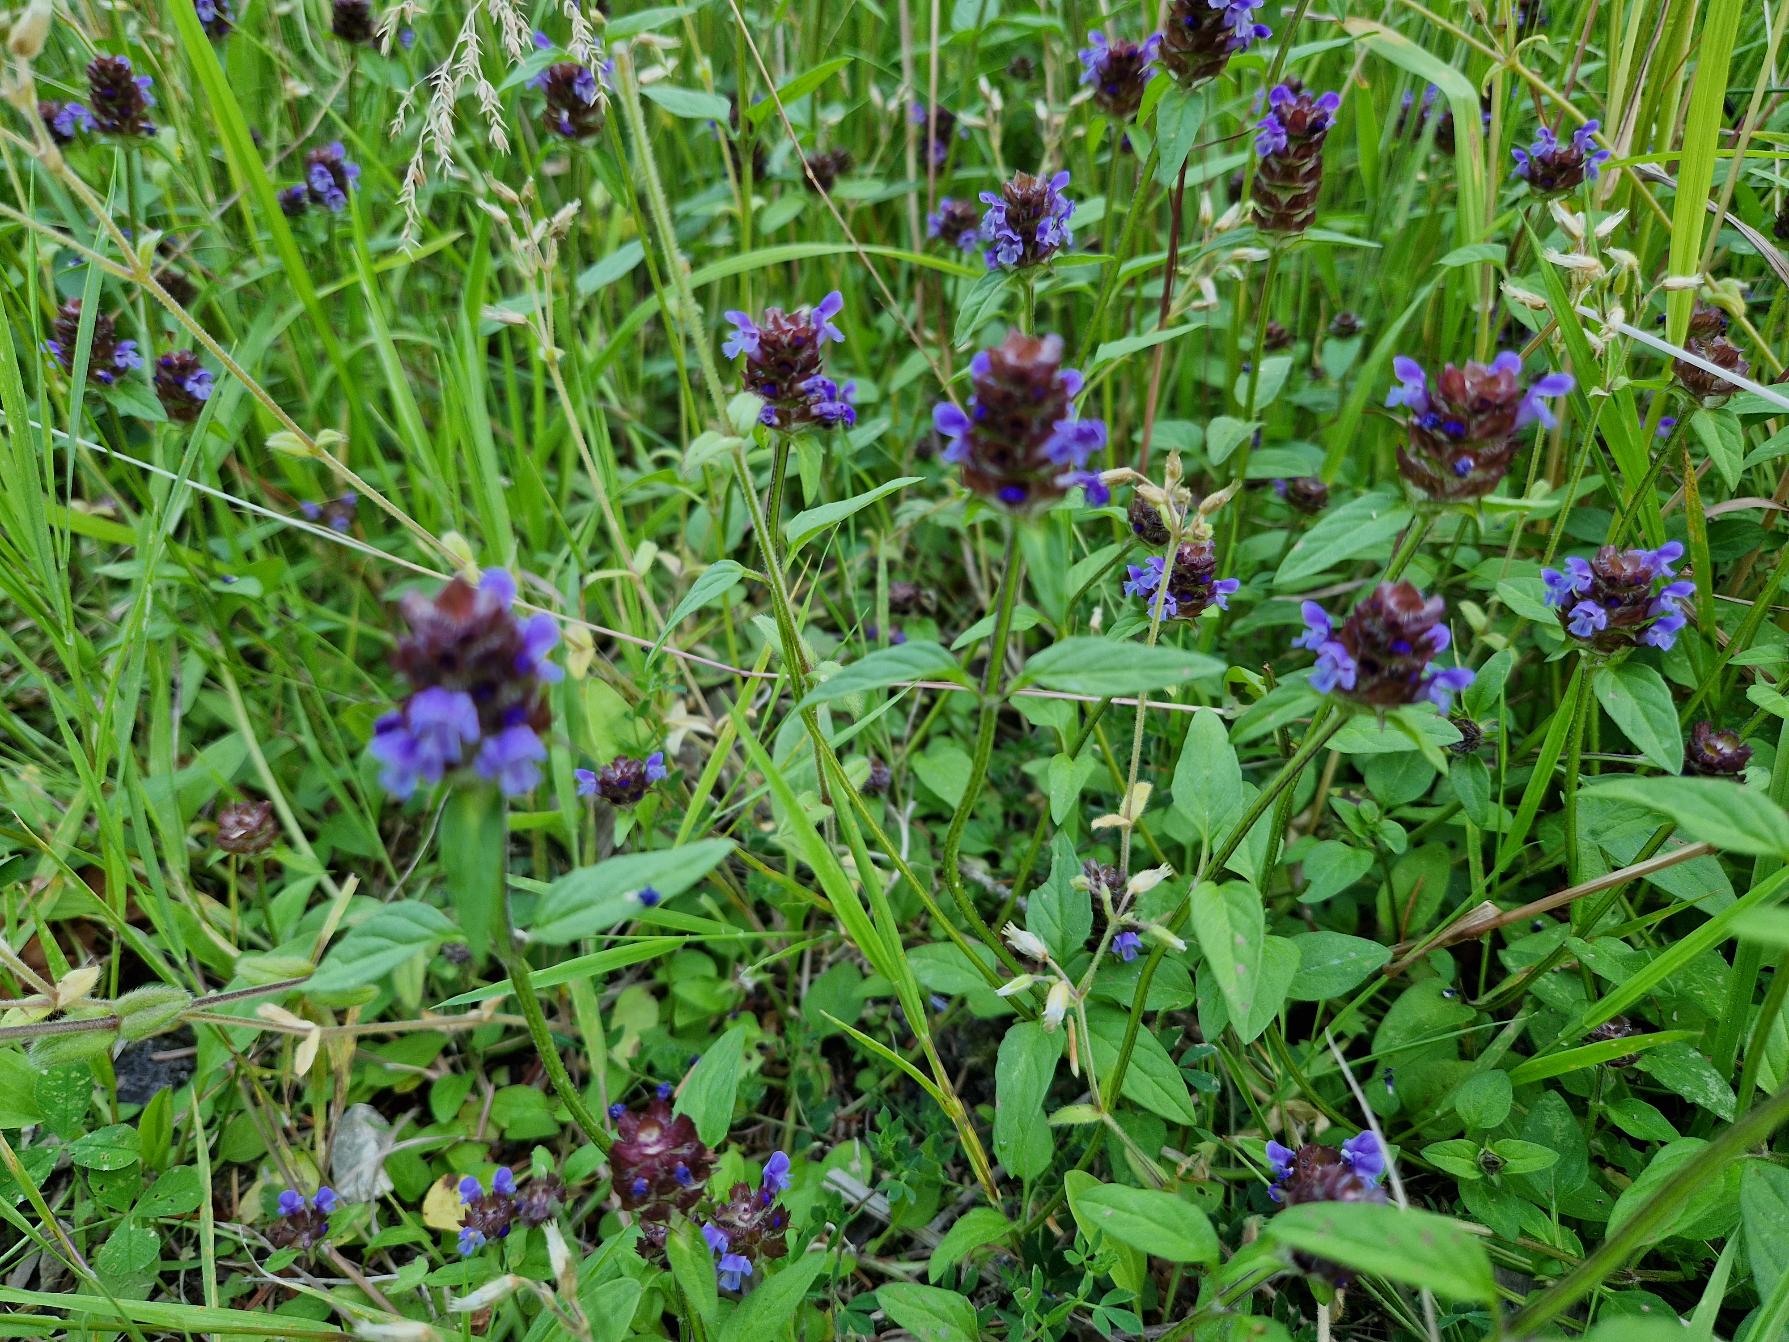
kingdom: Plantae
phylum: Tracheophyta
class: Magnoliopsida
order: Lamiales
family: Lamiaceae
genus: Prunella
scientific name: Prunella vulgaris
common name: Almindelig brunelle
